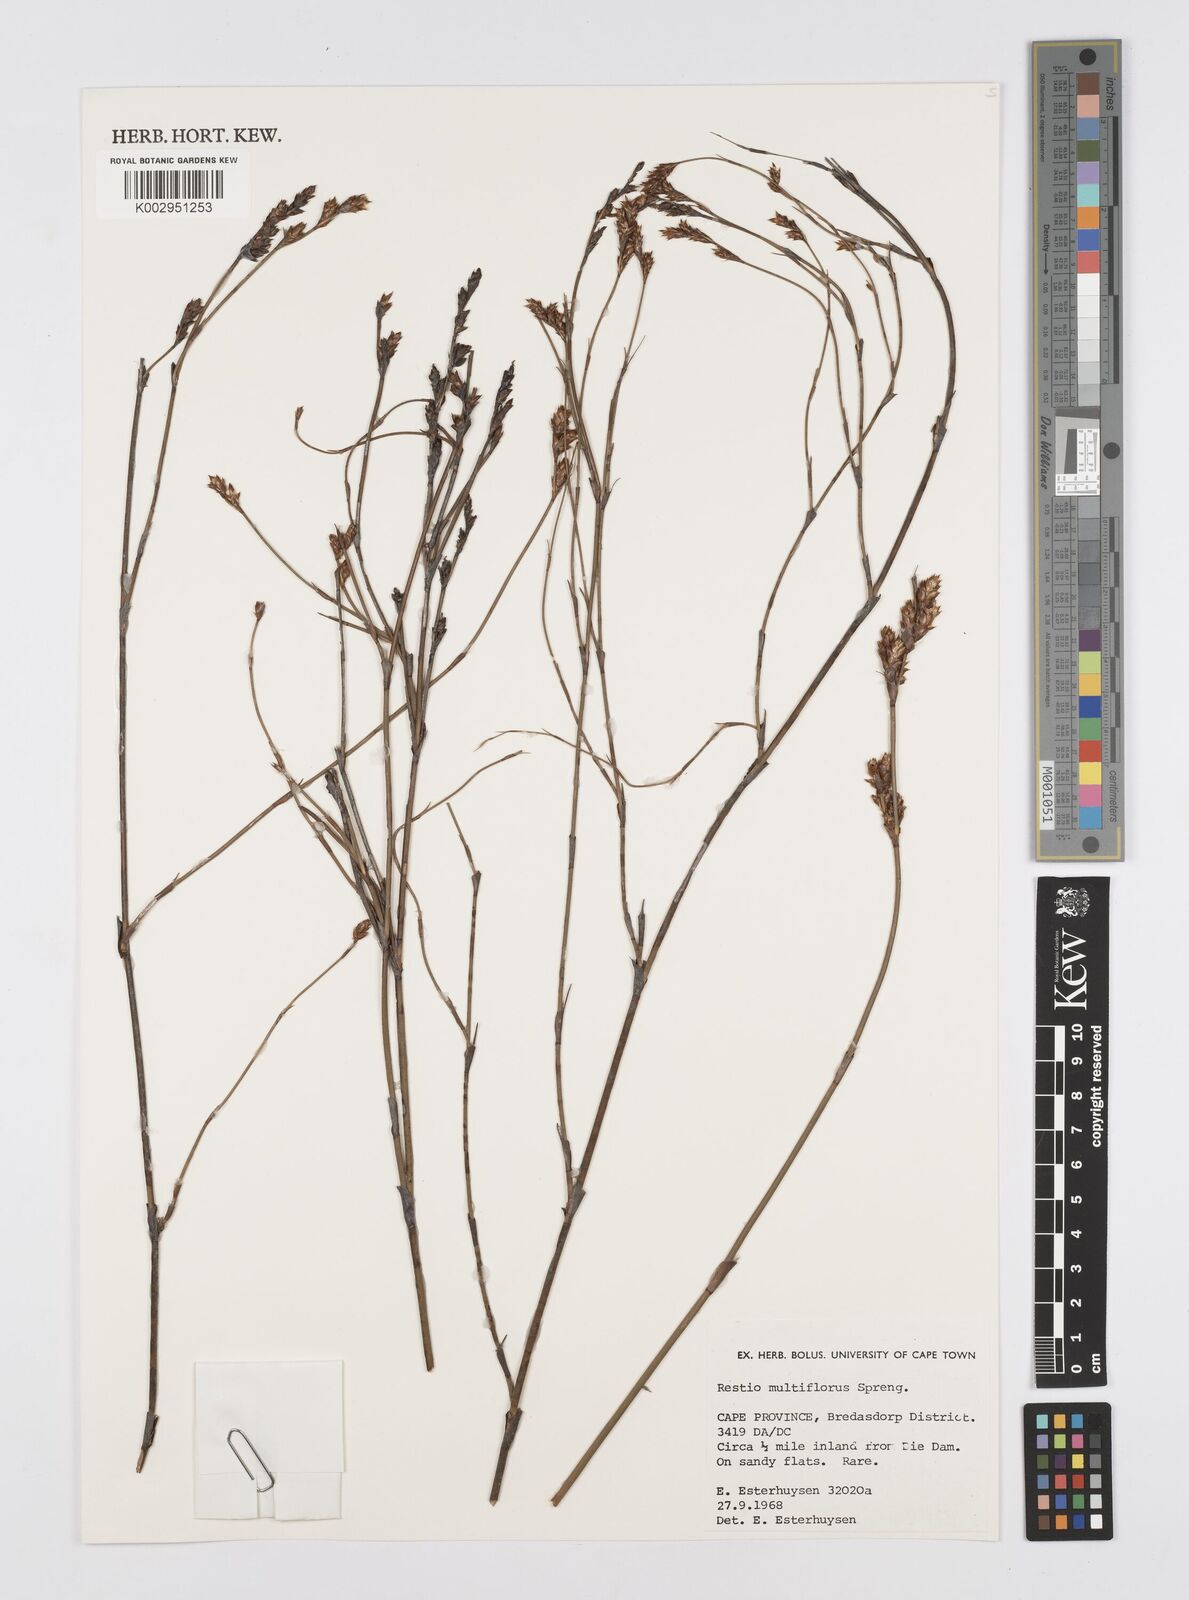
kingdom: Plantae
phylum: Tracheophyta
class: Liliopsida
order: Poales
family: Restionaceae
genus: Restio
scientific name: Restio multiflorus
